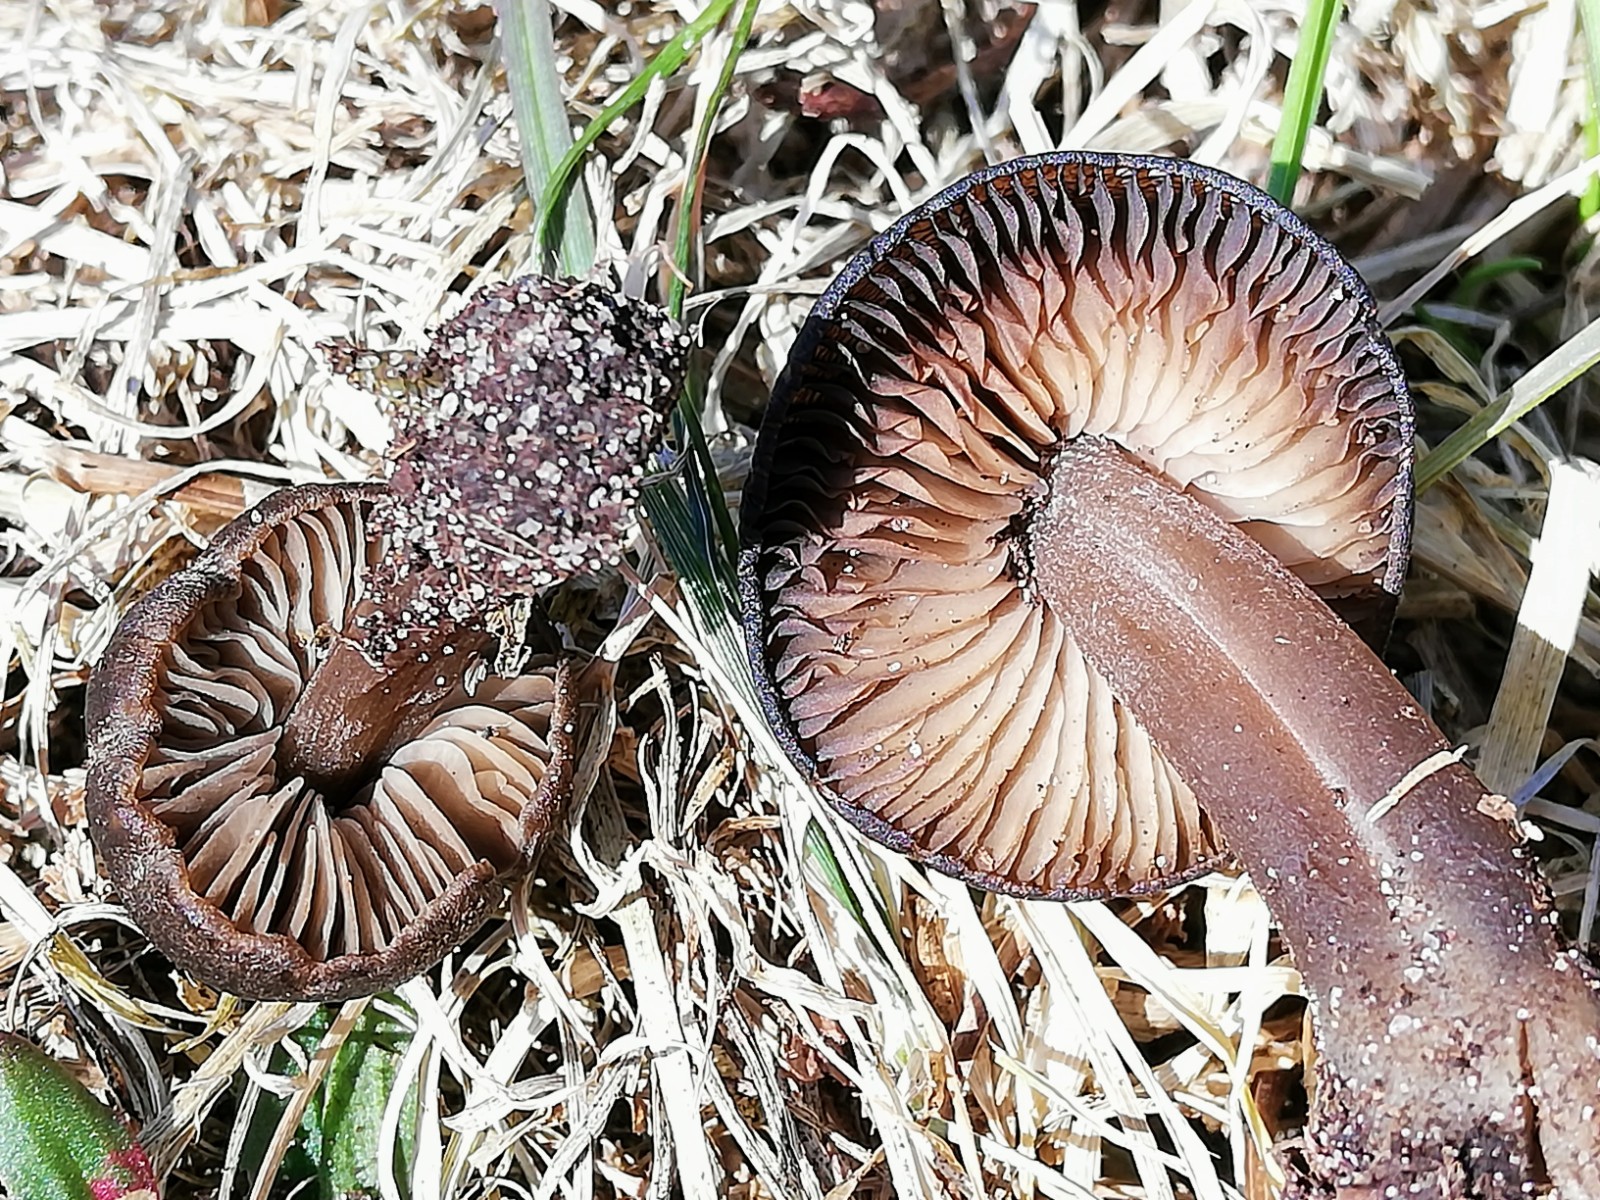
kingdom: Fungi
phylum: Basidiomycota
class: Agaricomycetes
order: Agaricales
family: Entolomataceae
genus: Entoloma
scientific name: Entoloma vernum
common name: vår-rødblad
